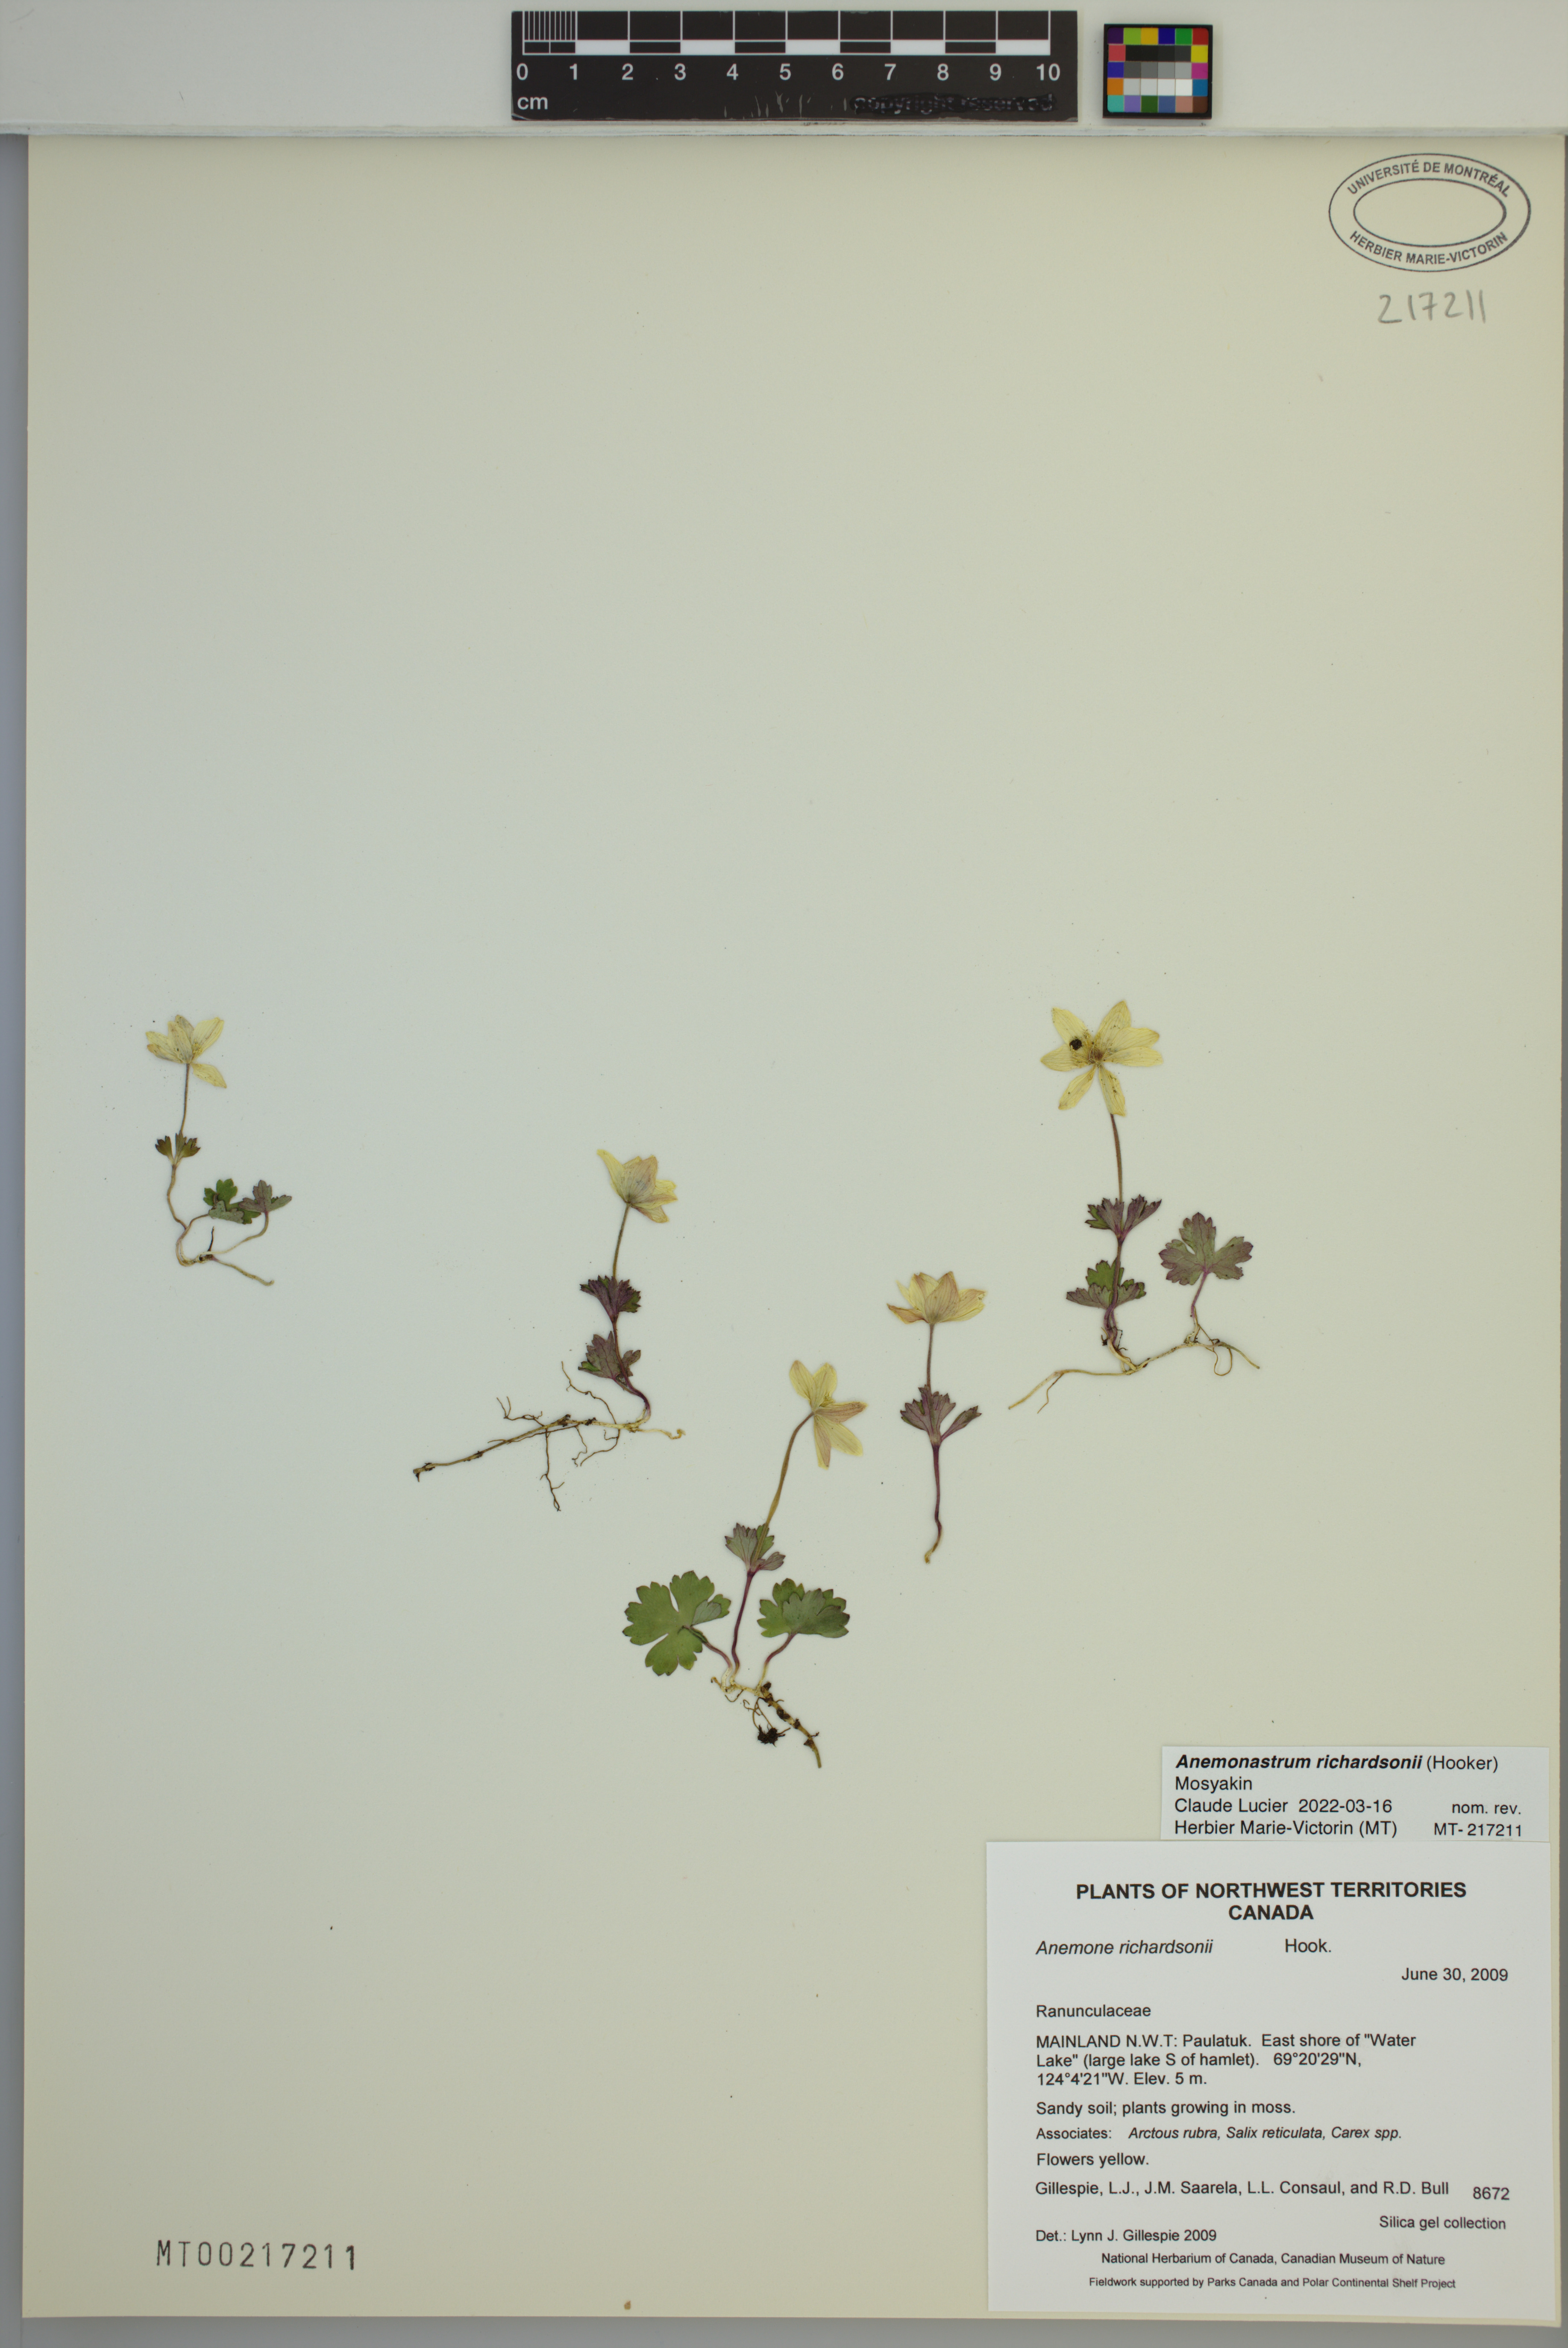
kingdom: Plantae
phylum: Tracheophyta
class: Magnoliopsida
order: Ranunculales
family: Ranunculaceae
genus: Anemonastrum
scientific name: Anemonastrum richardsonii
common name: Richardson's anemone
